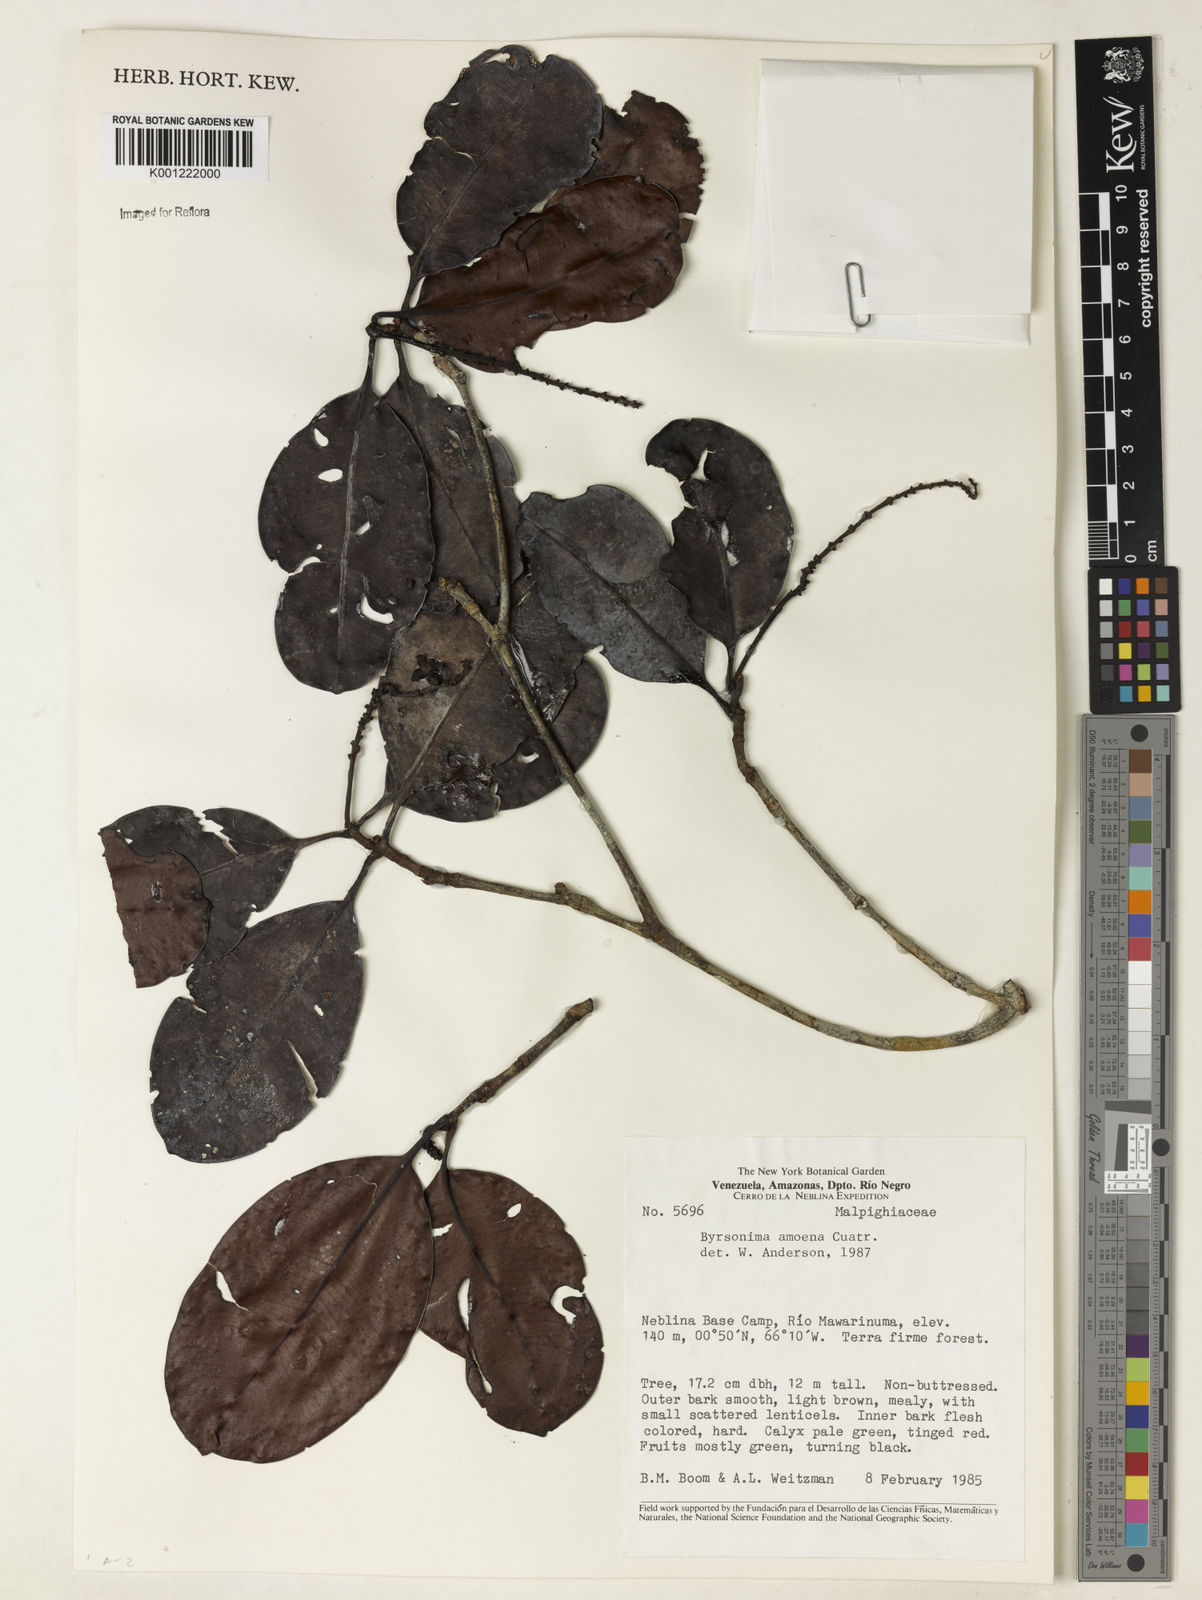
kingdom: Plantae
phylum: Tracheophyta
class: Magnoliopsida
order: Malpighiales
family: Malpighiaceae
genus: Byrsonima
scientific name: Byrsonima amoena
